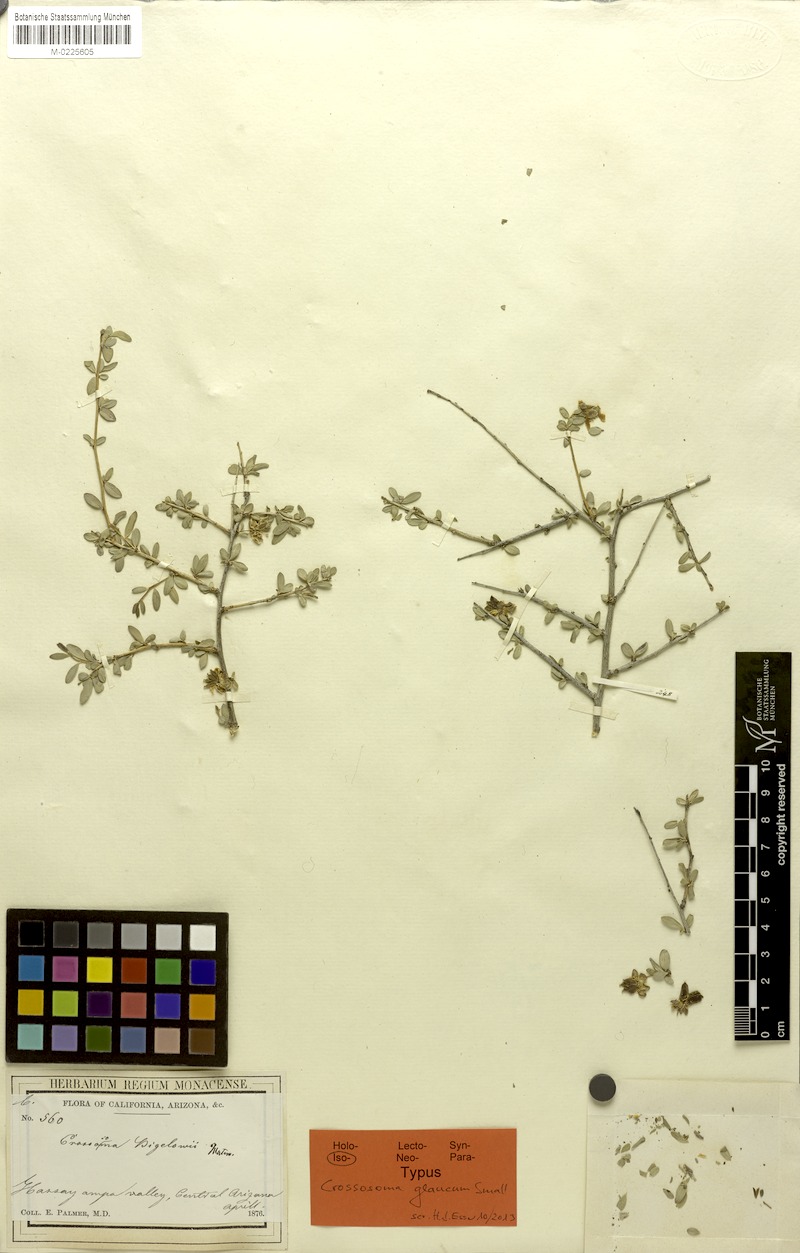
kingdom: Plantae
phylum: Tracheophyta
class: Magnoliopsida
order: Crossosomatales
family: Crossosomataceae
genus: Crossosoma
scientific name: Crossosoma bigelovii
